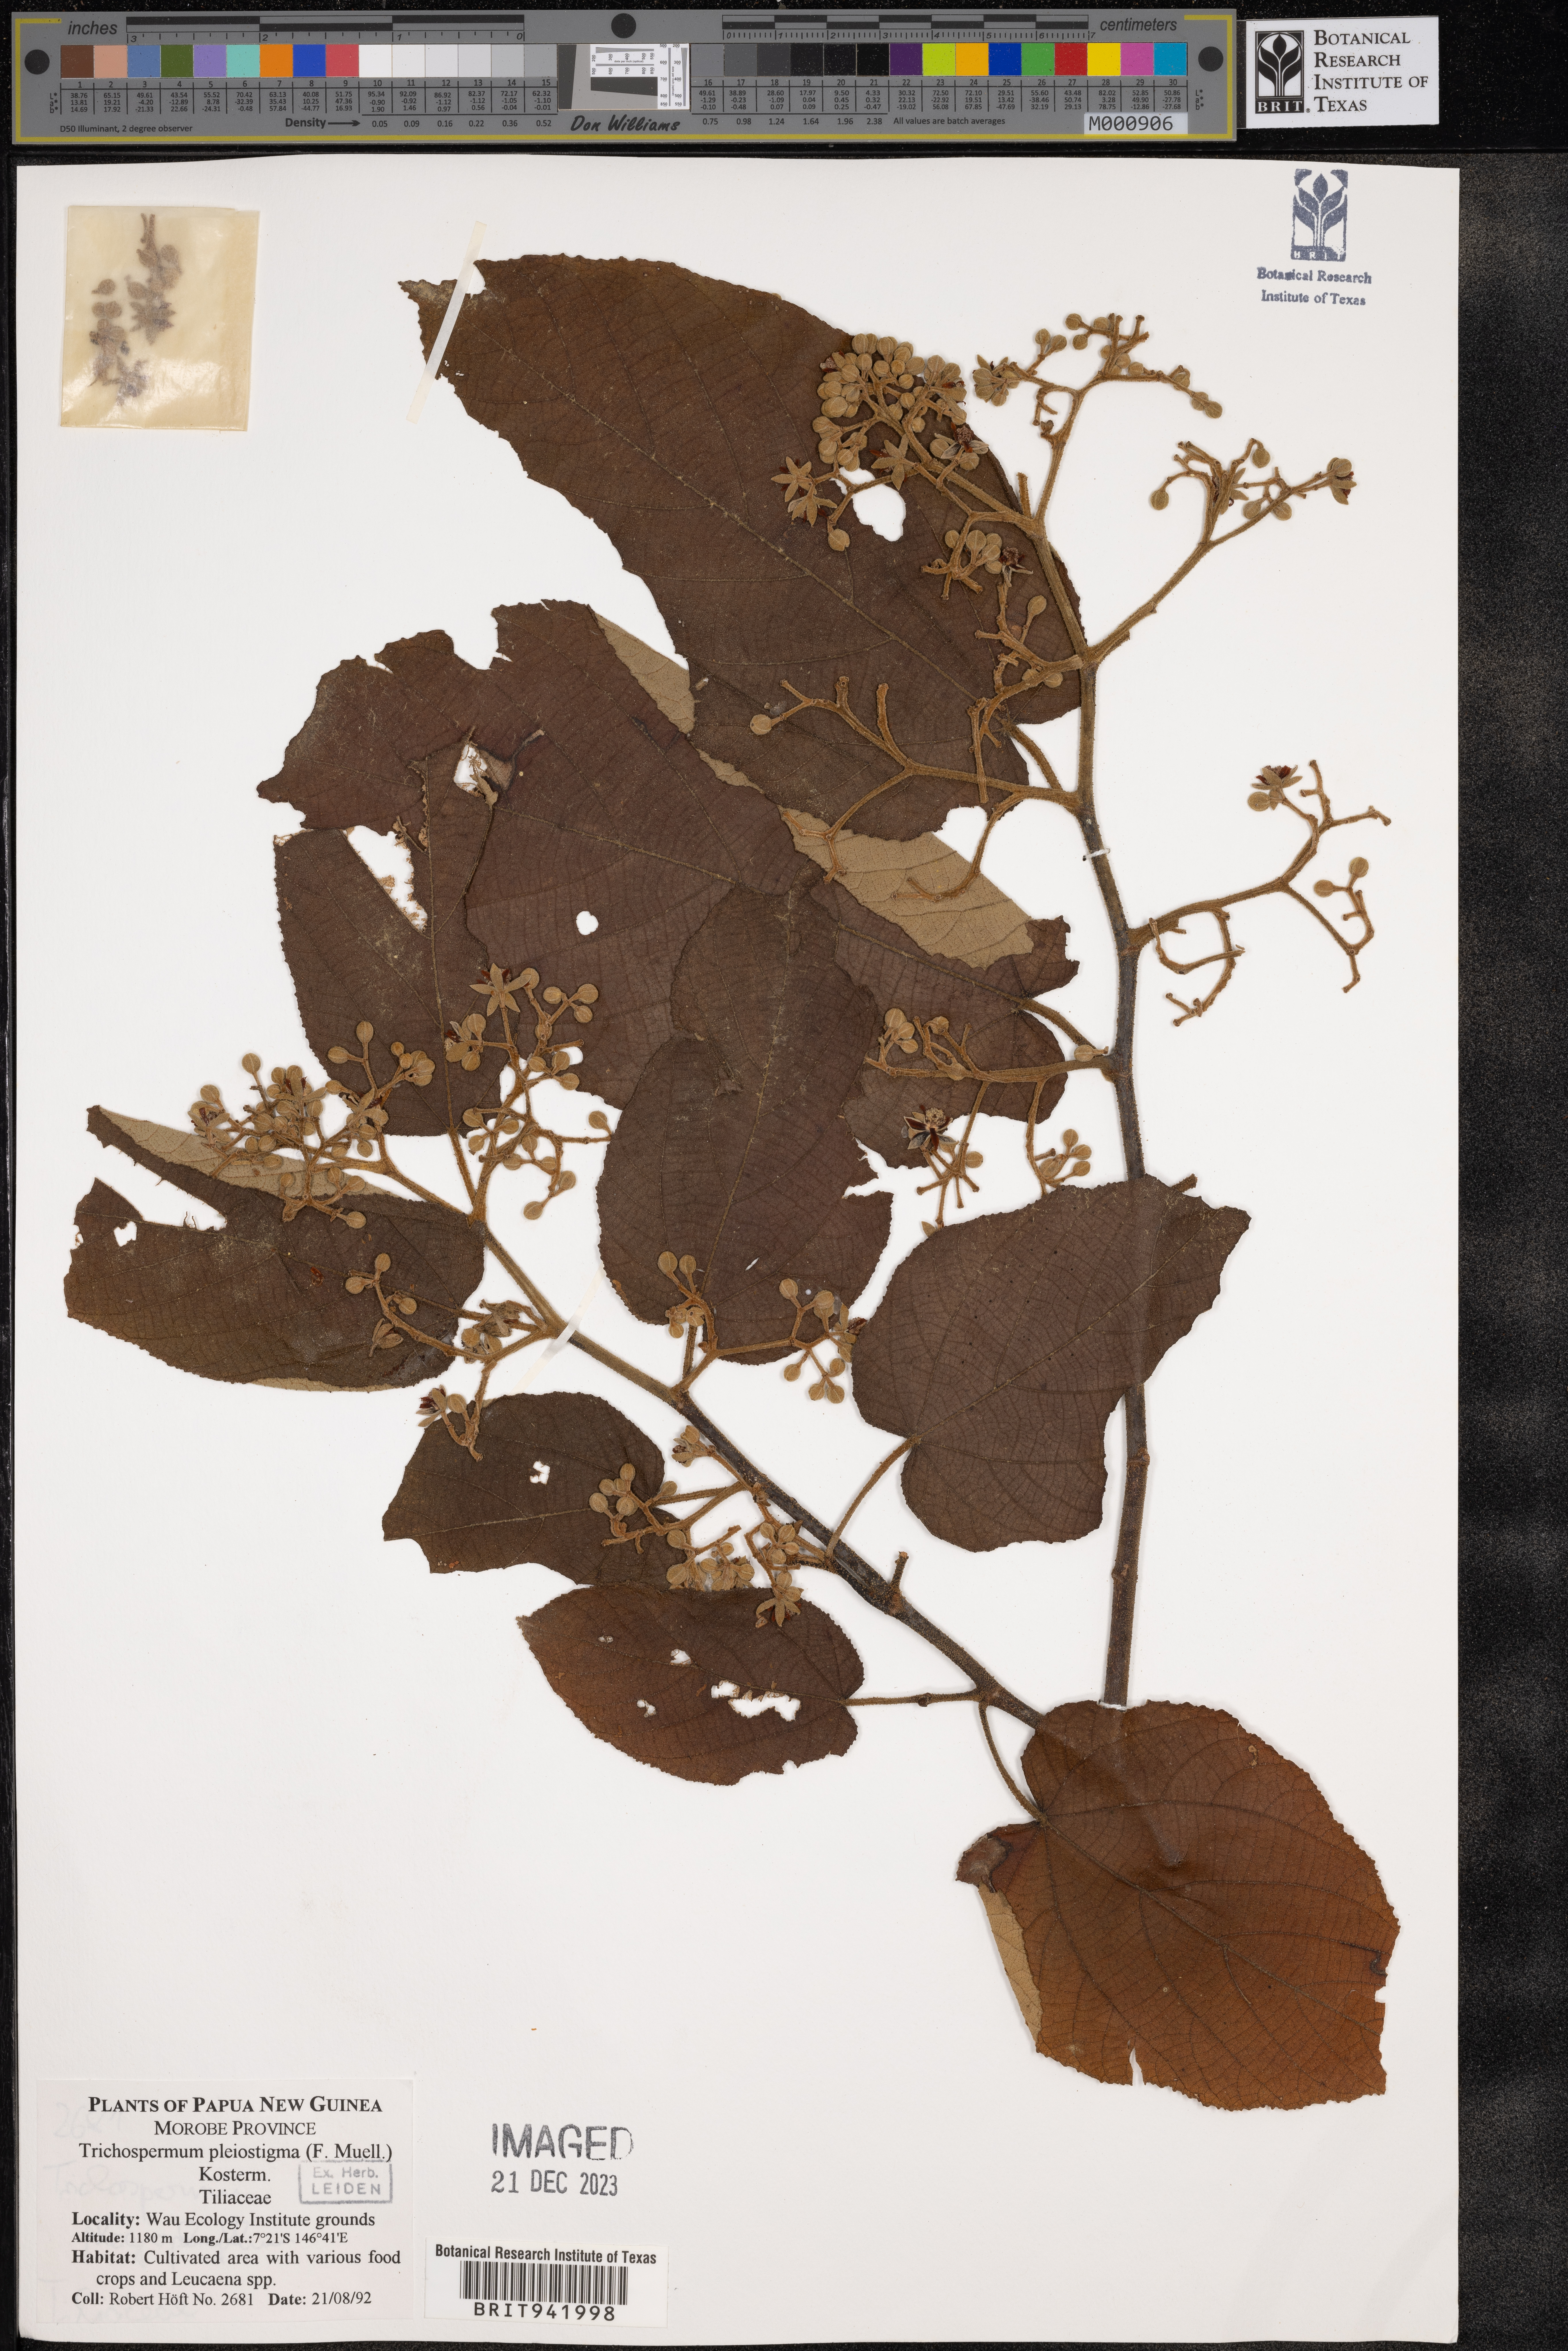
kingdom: Plantae
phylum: Tracheophyta
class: Magnoliopsida
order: Malvales
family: Malvaceae
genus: Trichospermum
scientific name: Trichospermum
